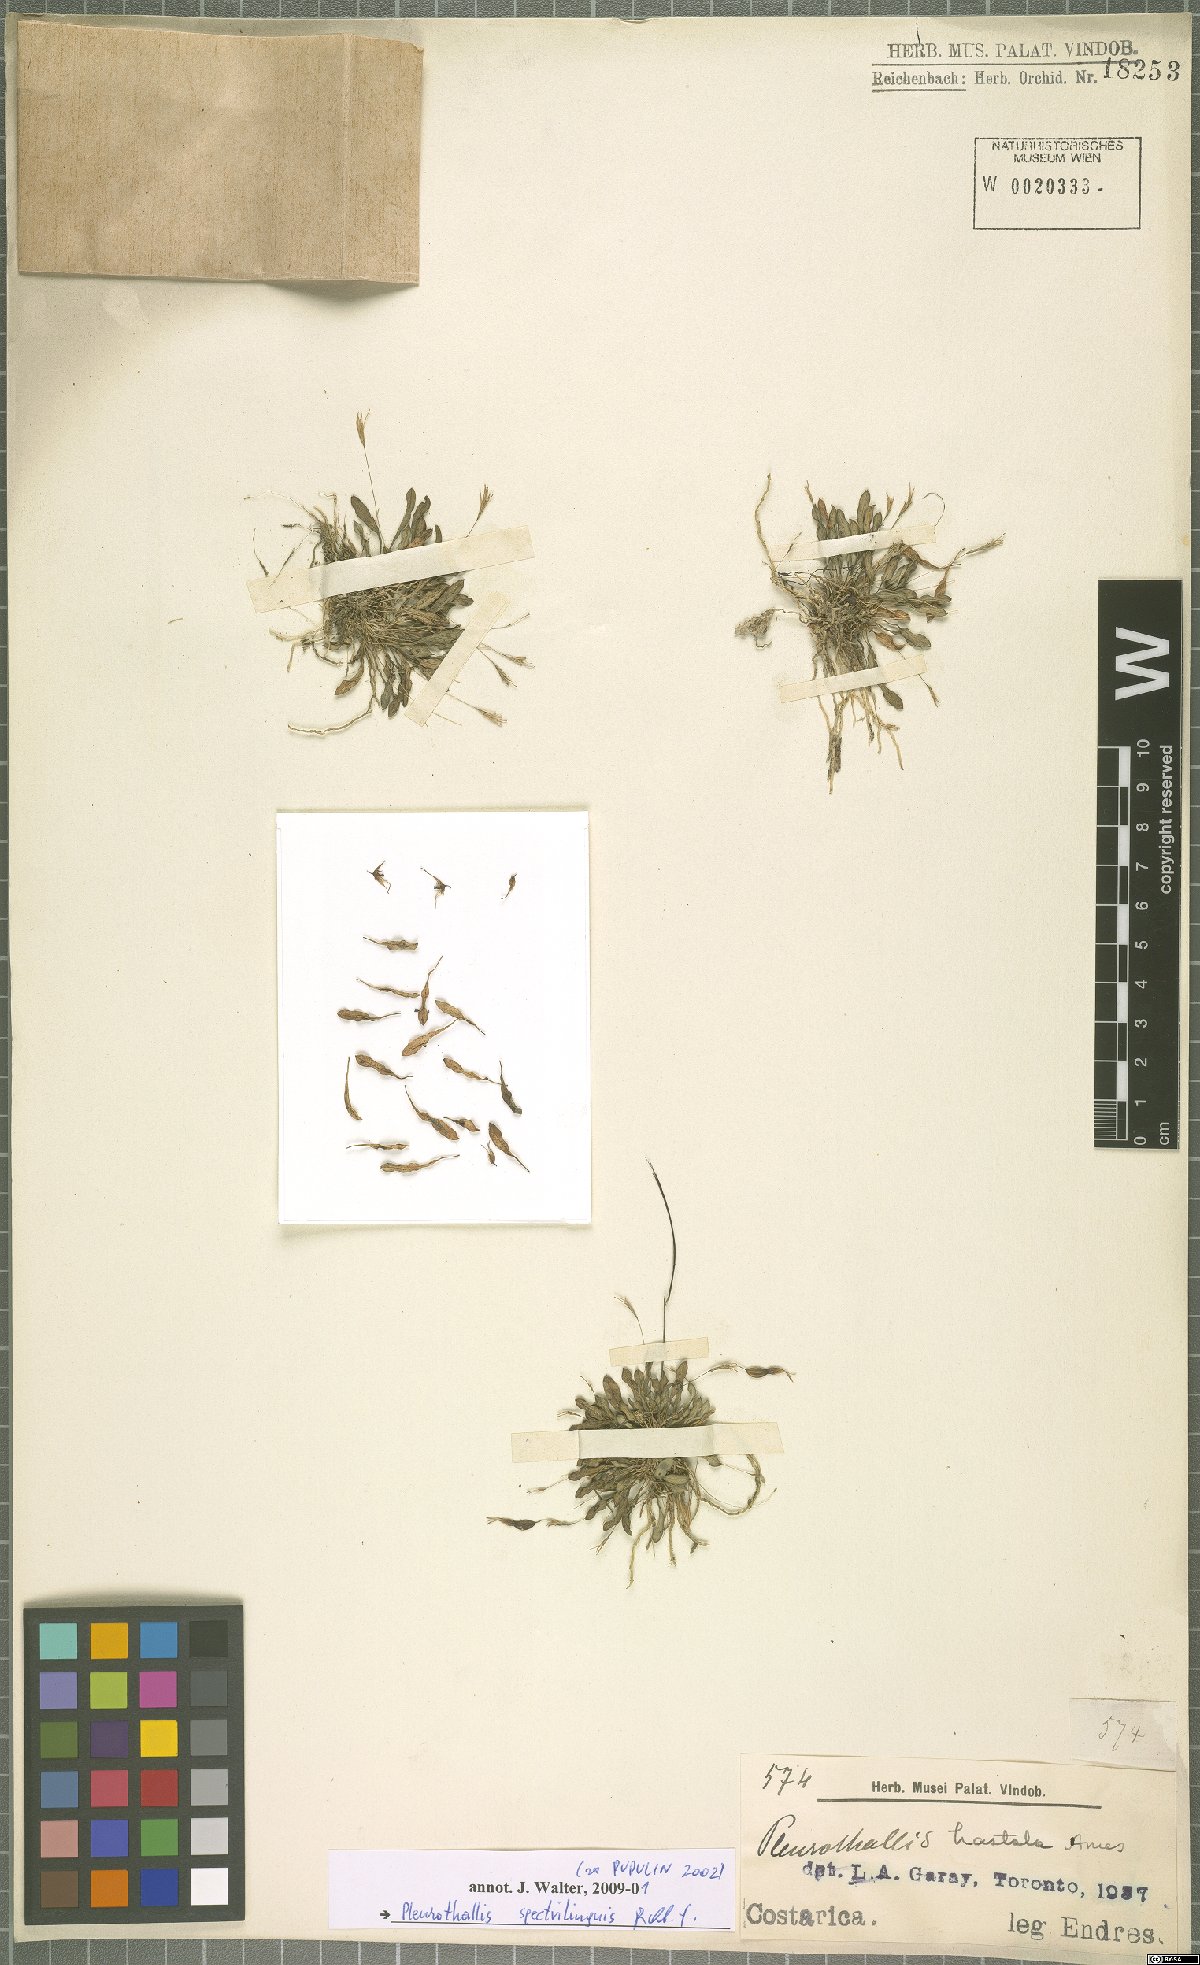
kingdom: Plantae
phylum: Tracheophyta
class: Liliopsida
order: Asparagales
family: Orchidaceae
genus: Muscarella
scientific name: Muscarella marginata
